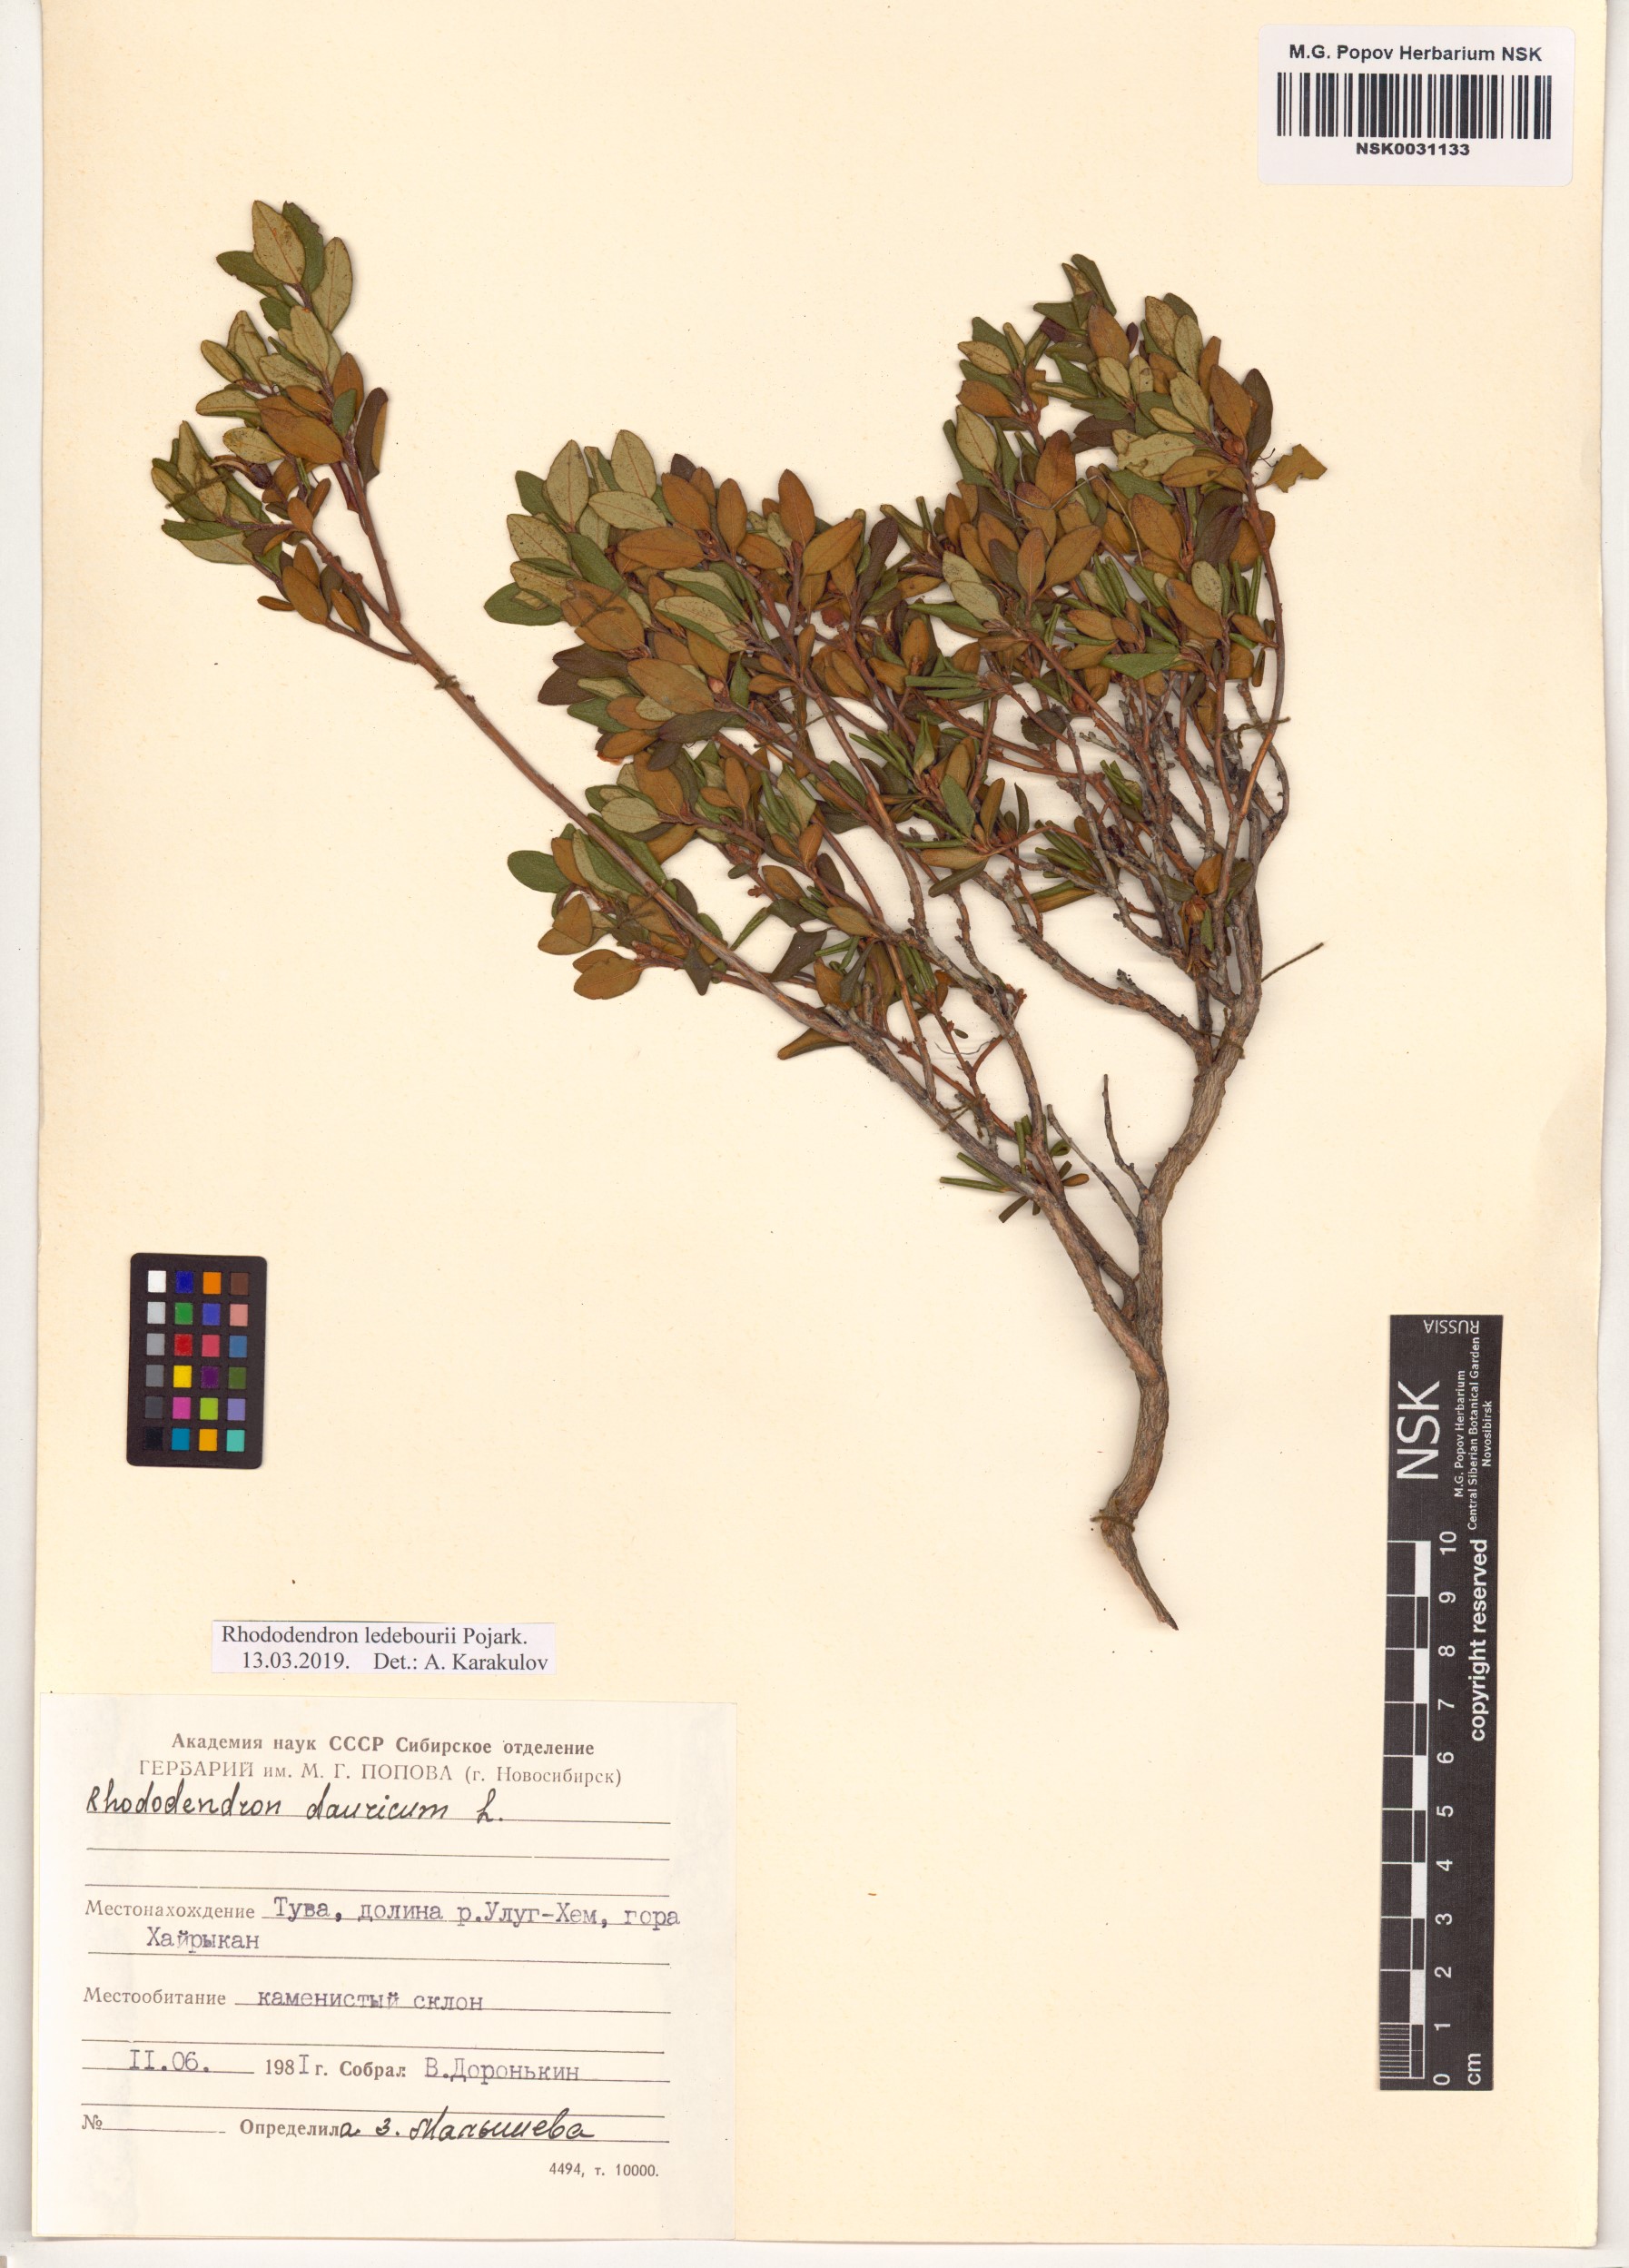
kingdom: Plantae
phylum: Tracheophyta
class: Magnoliopsida
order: Ericales
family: Ericaceae
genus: Rhododendron
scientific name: Rhododendron dauricum
